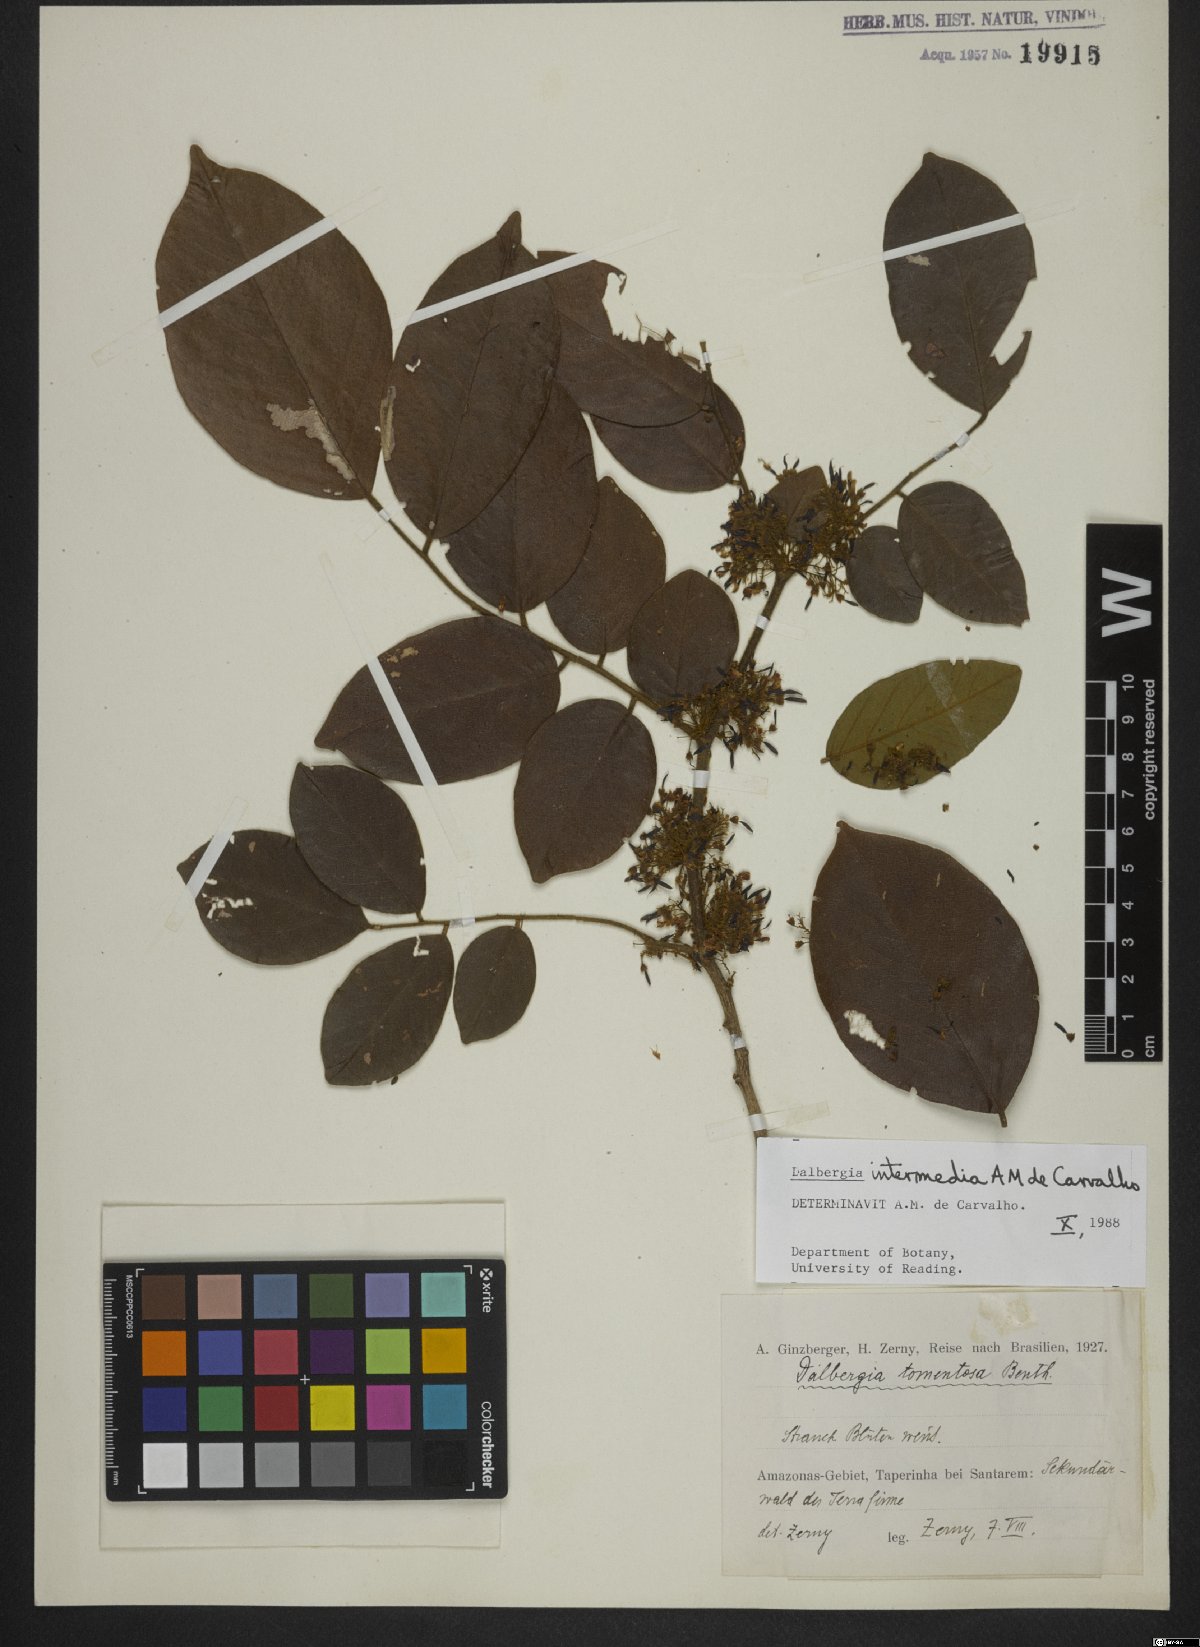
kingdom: Plantae
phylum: Tracheophyta
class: Magnoliopsida
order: Fabales
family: Fabaceae
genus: Dalbergia
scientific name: Dalbergia intermedia
